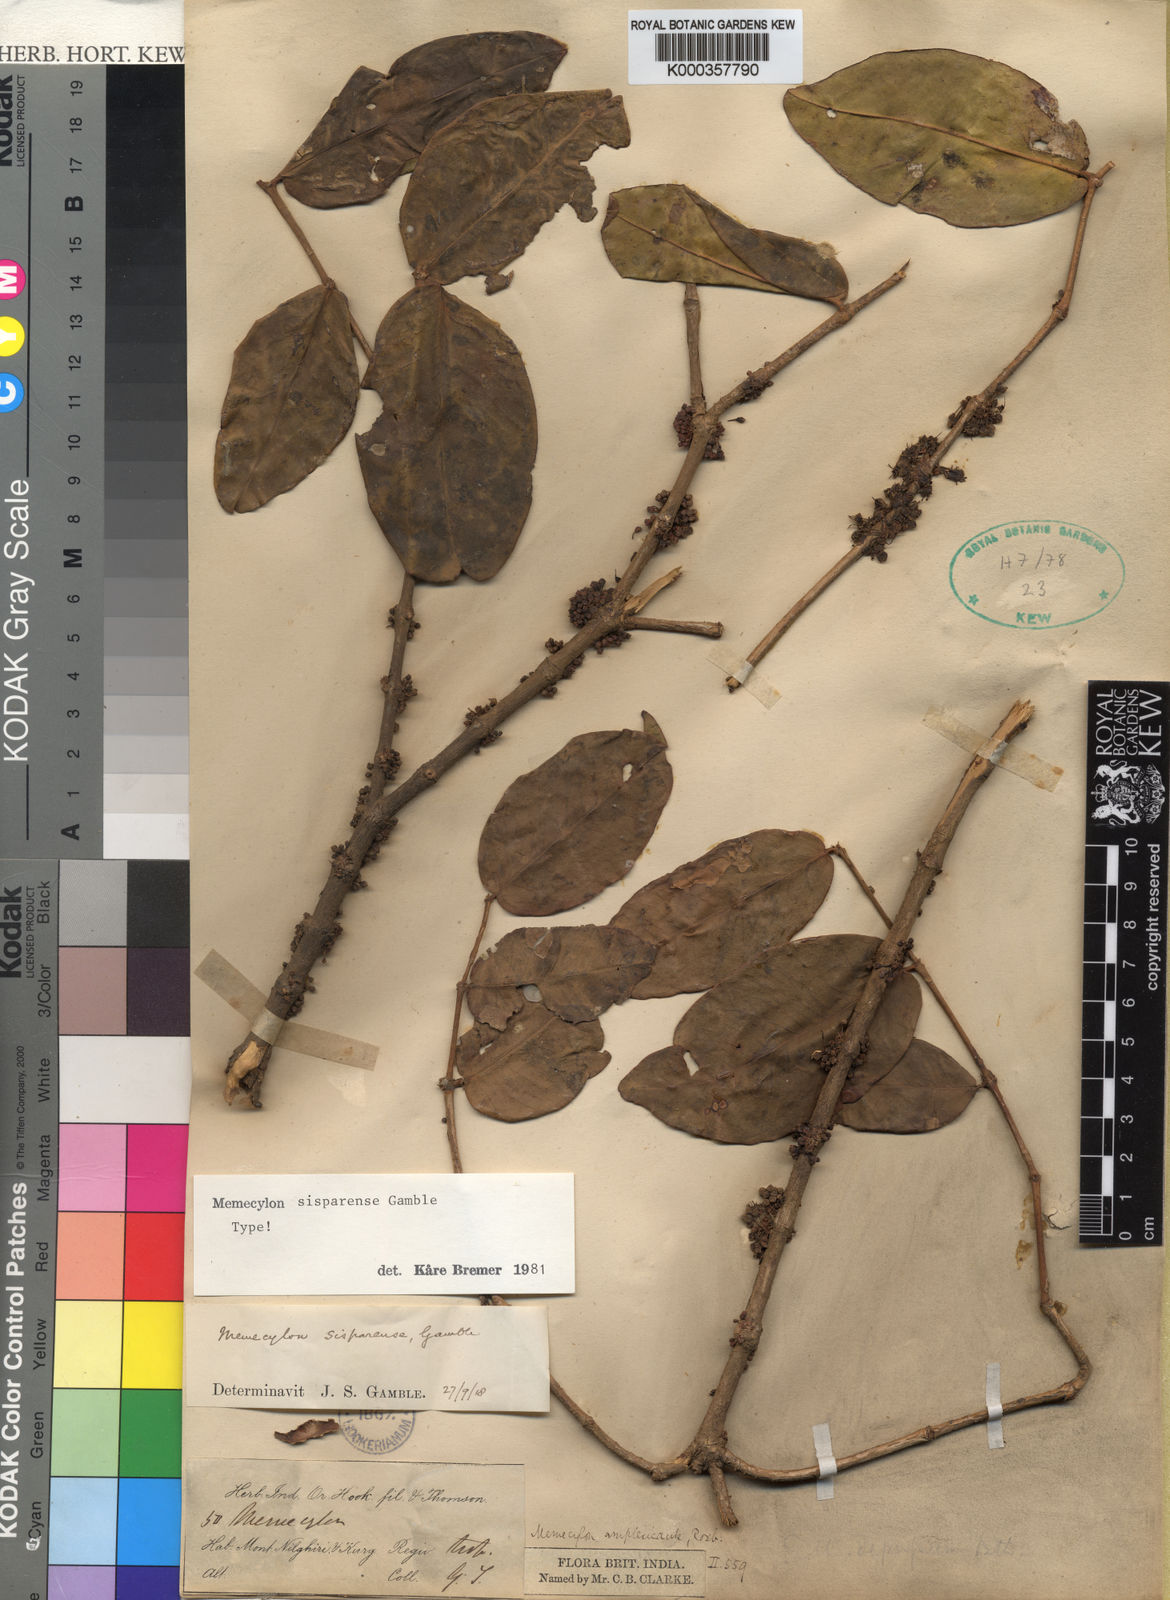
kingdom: Plantae
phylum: Tracheophyta
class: Magnoliopsida
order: Myrtales
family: Melastomataceae
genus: Memecylon
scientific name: Memecylon sisparense
